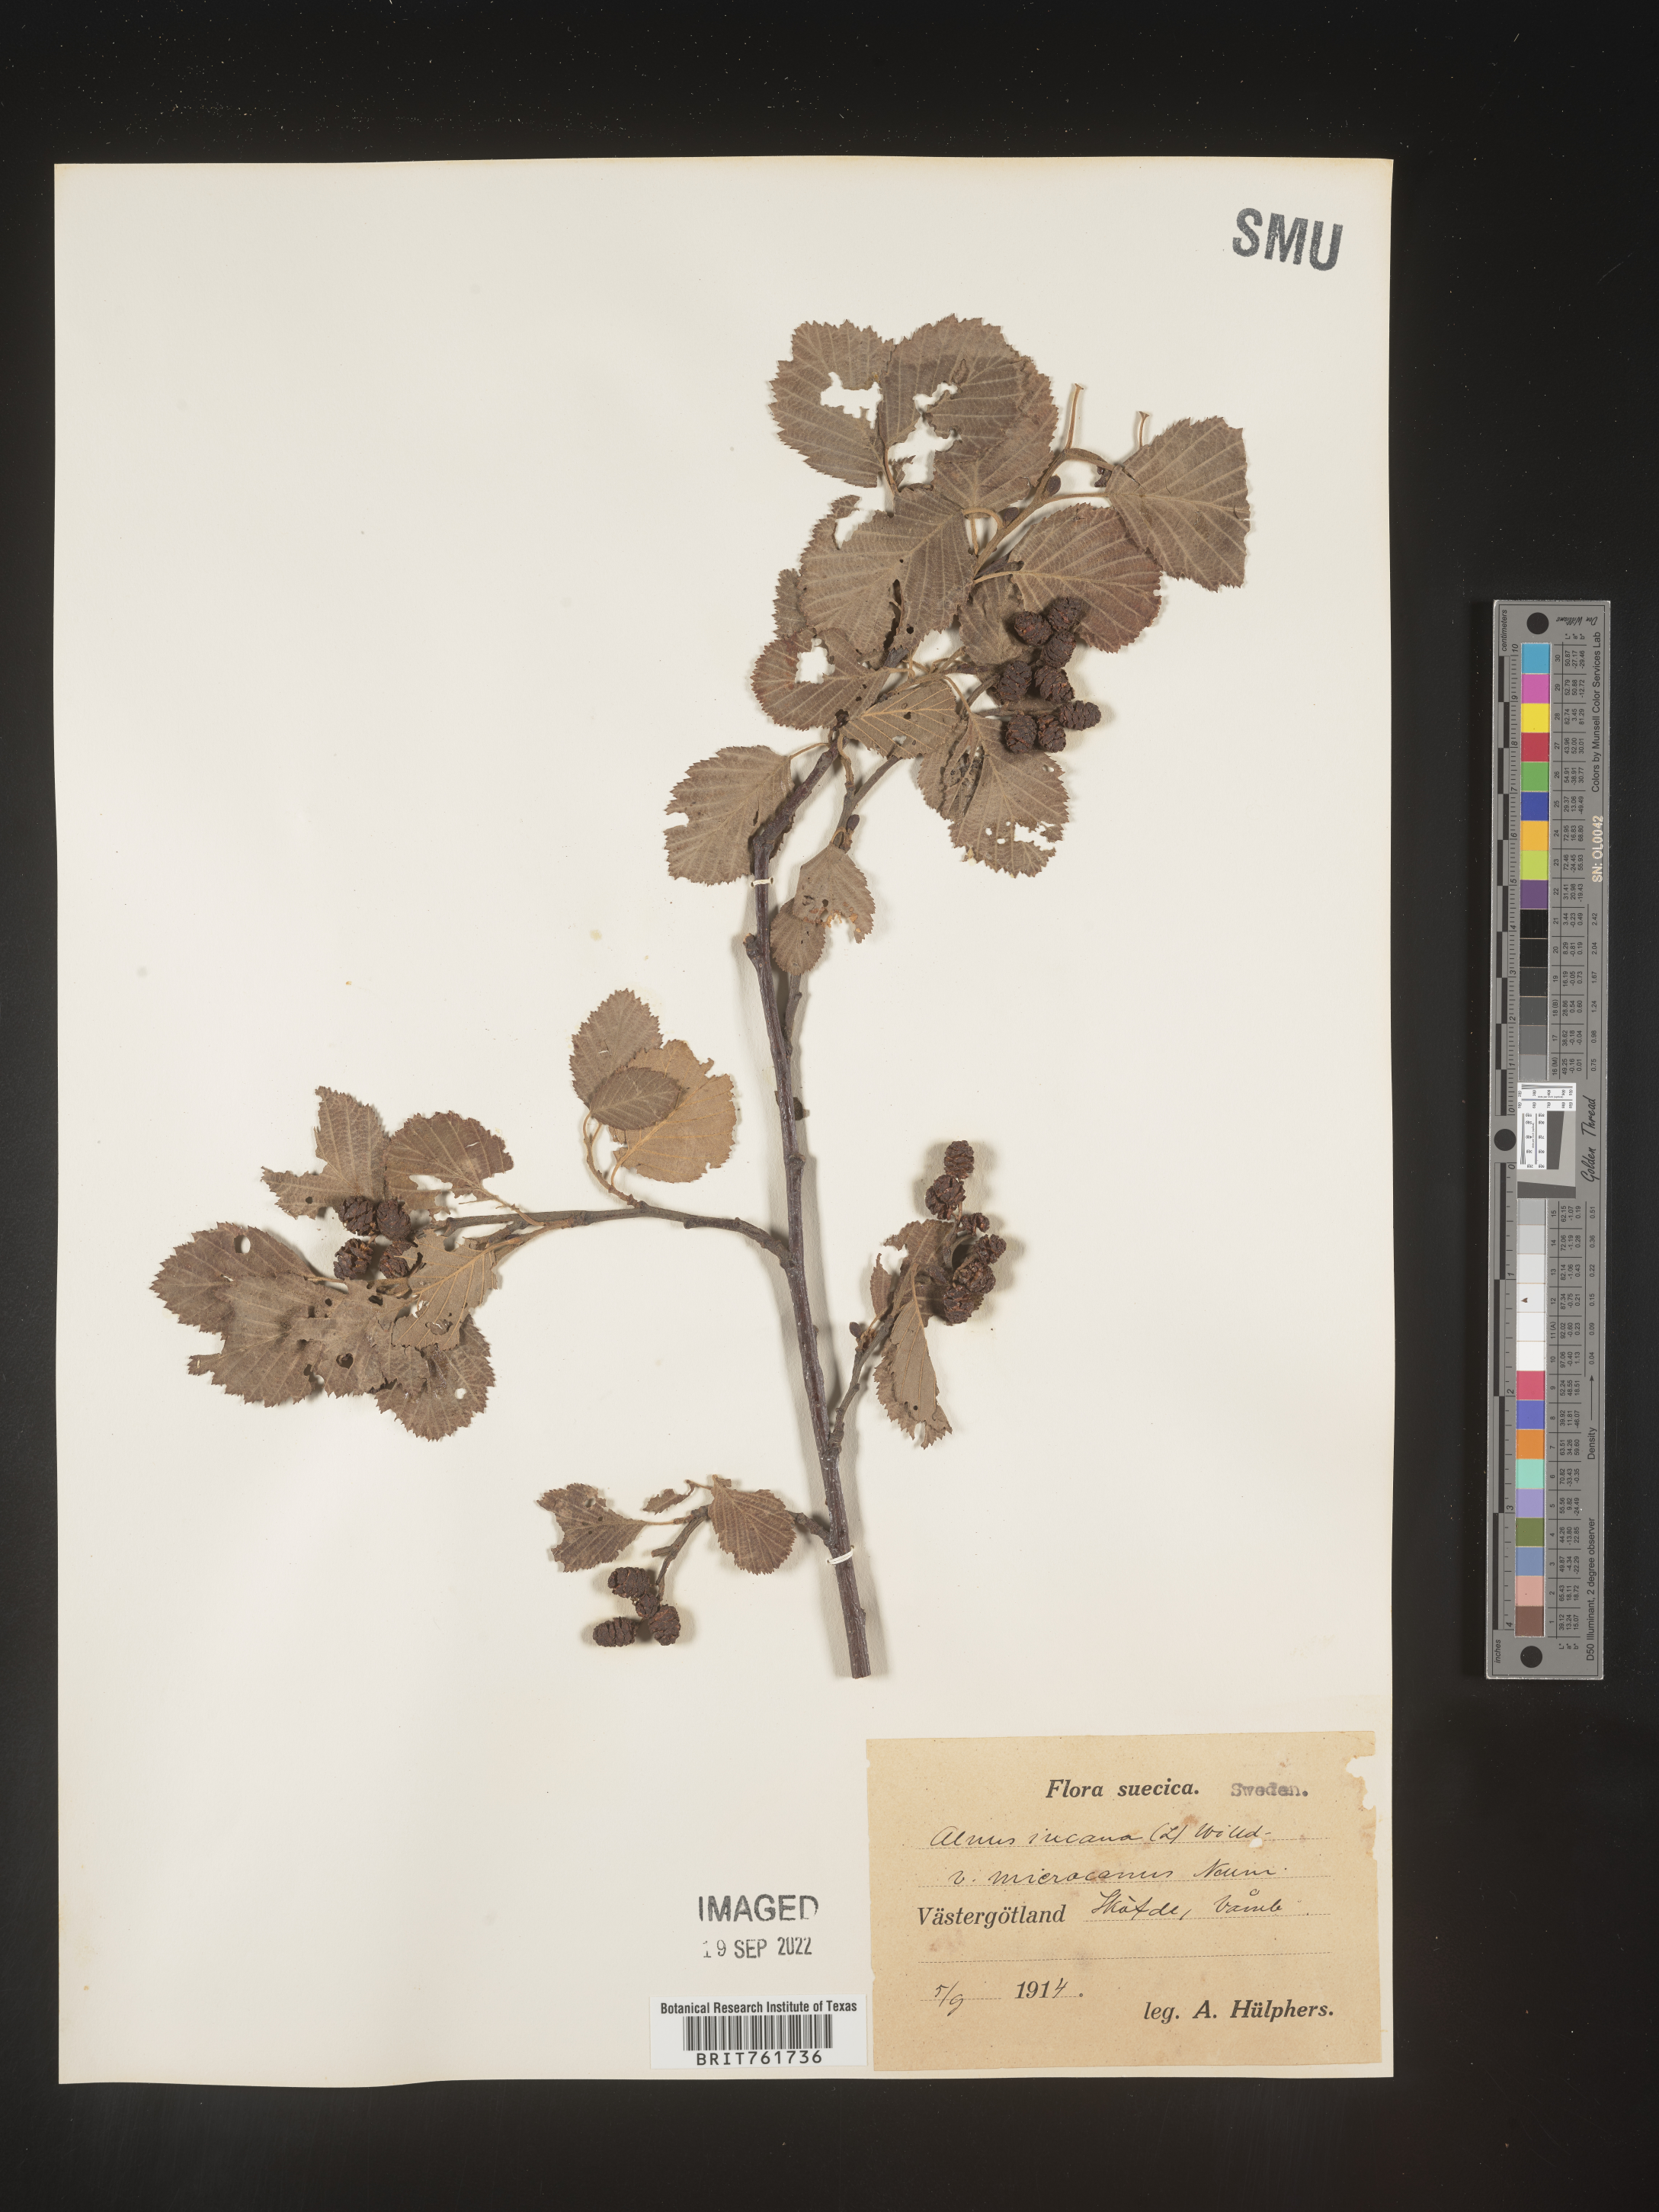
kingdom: Plantae
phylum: Tracheophyta
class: Magnoliopsida
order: Fagales
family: Betulaceae
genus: Alnus
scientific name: Alnus
